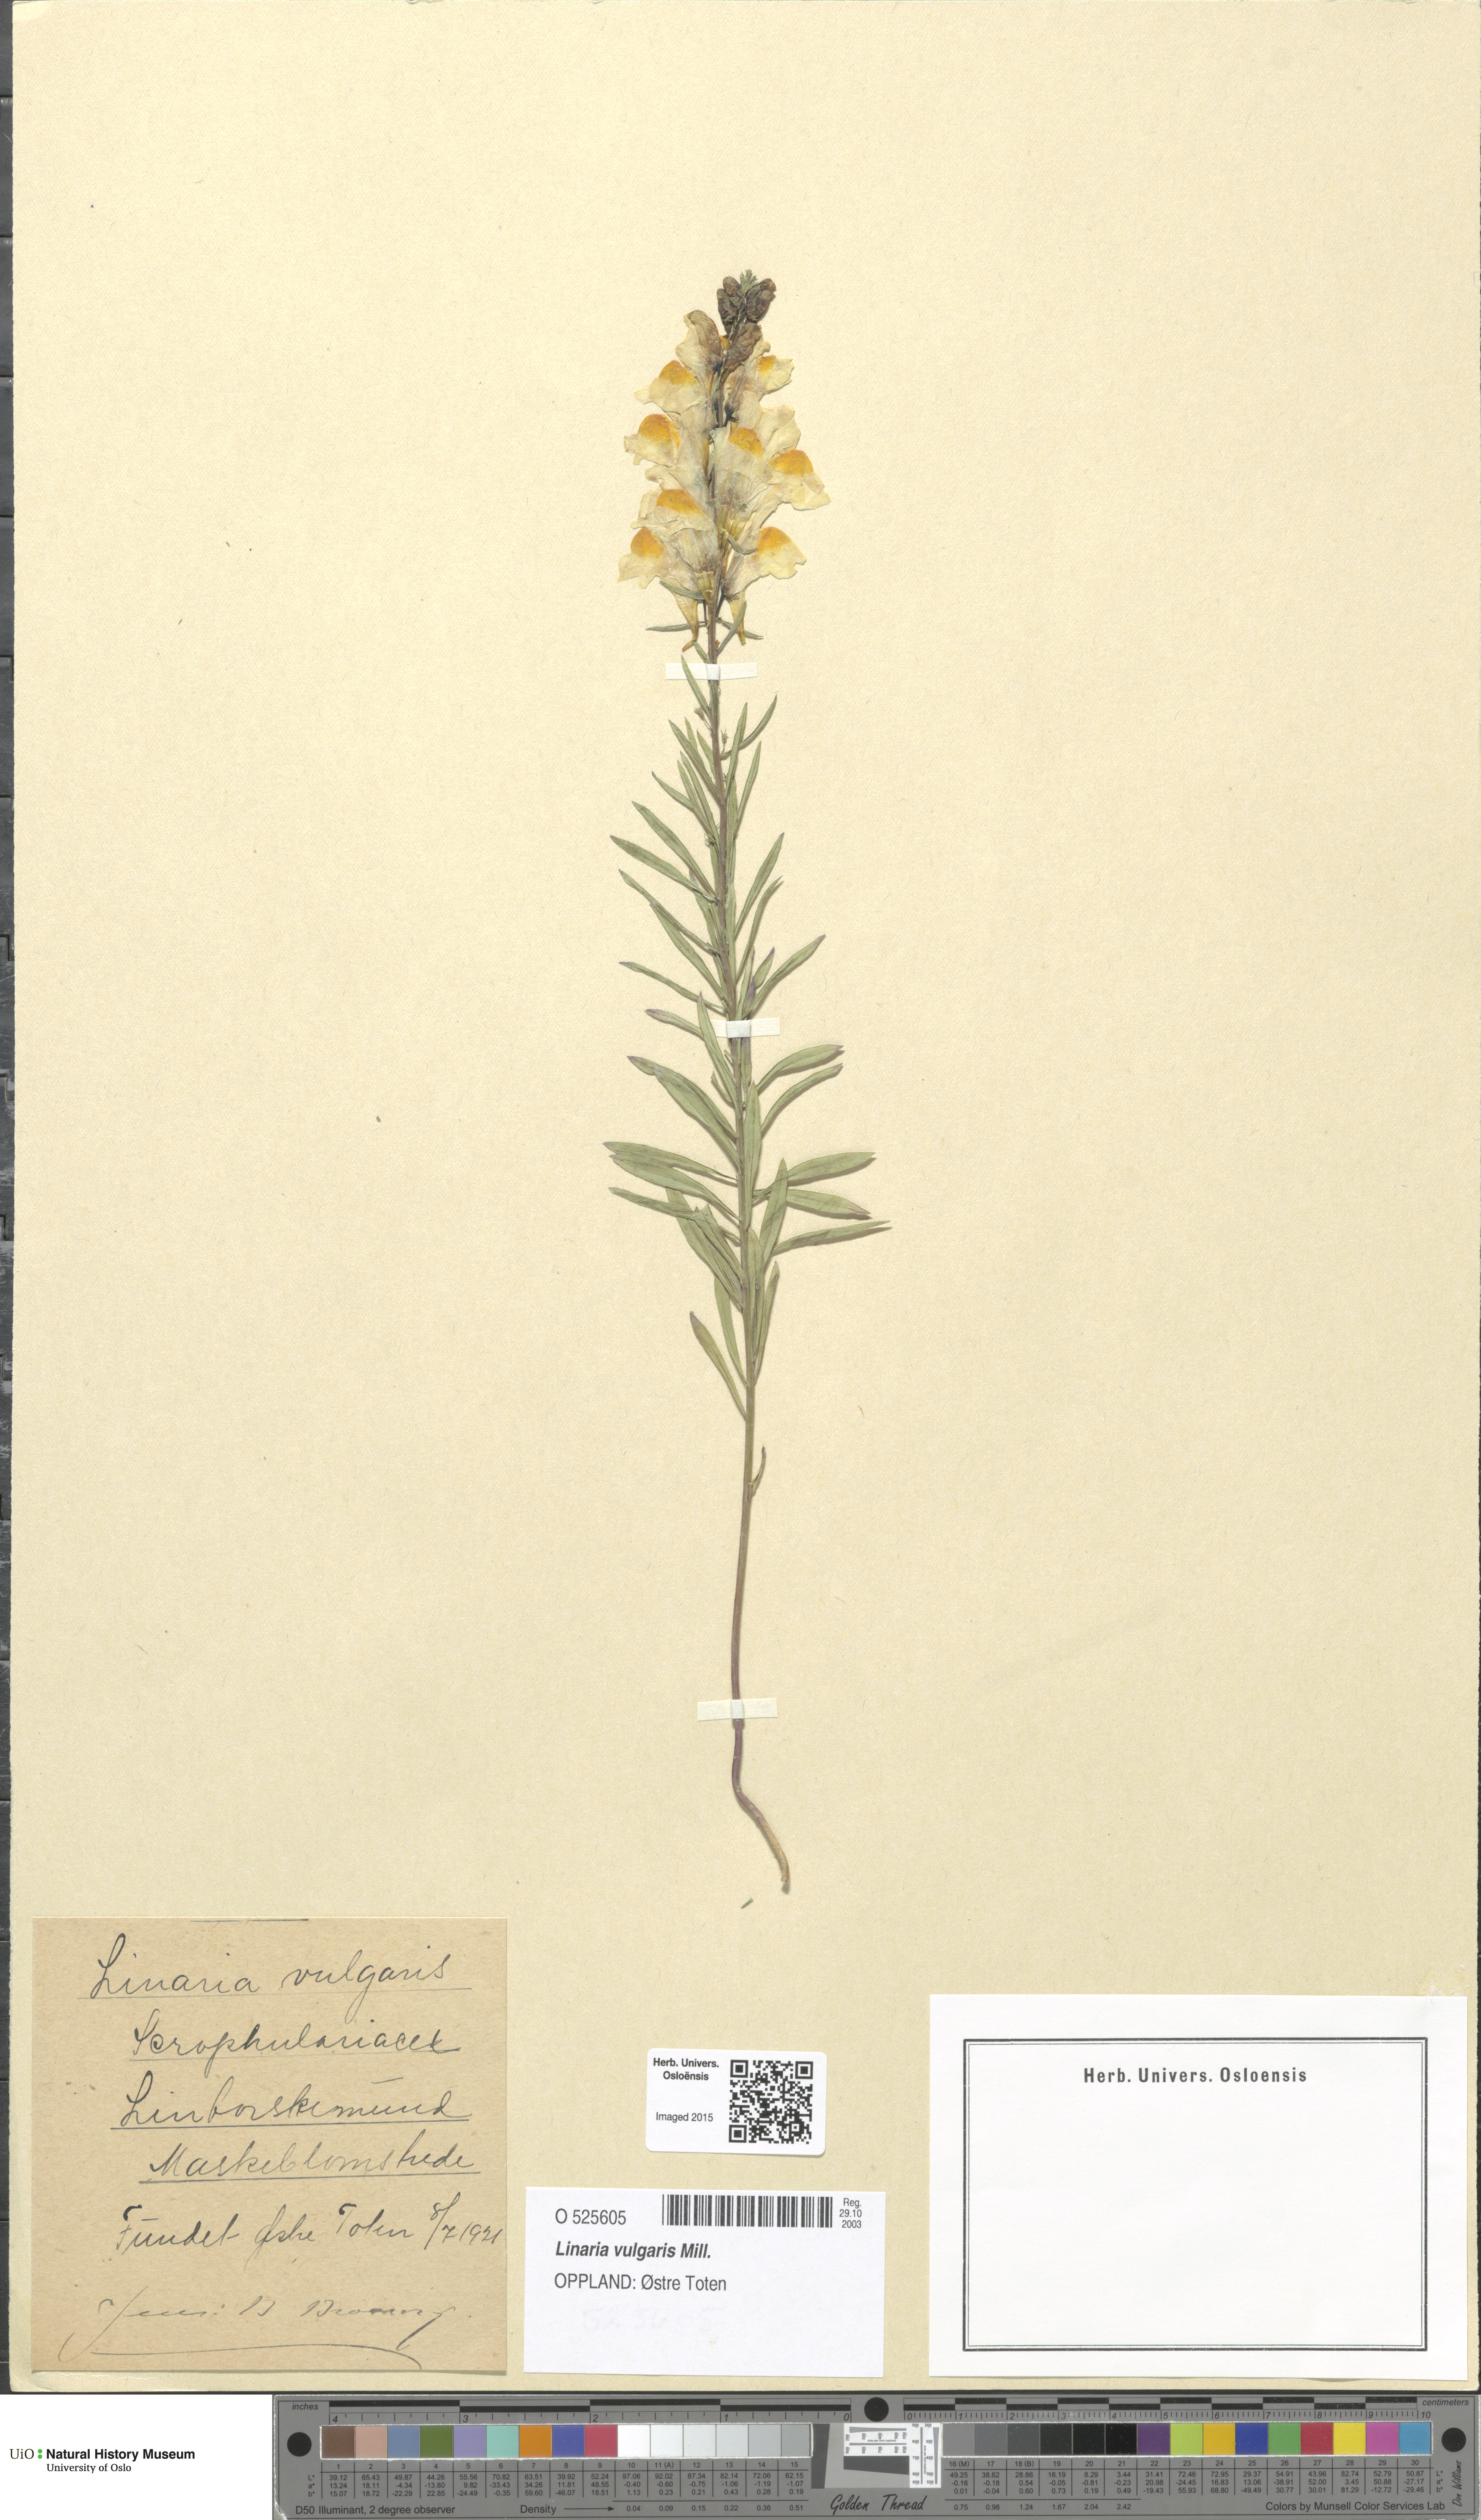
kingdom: Plantae
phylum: Tracheophyta
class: Magnoliopsida
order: Lamiales
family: Plantaginaceae
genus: Linaria
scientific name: Linaria vulgaris
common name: Butter and eggs
